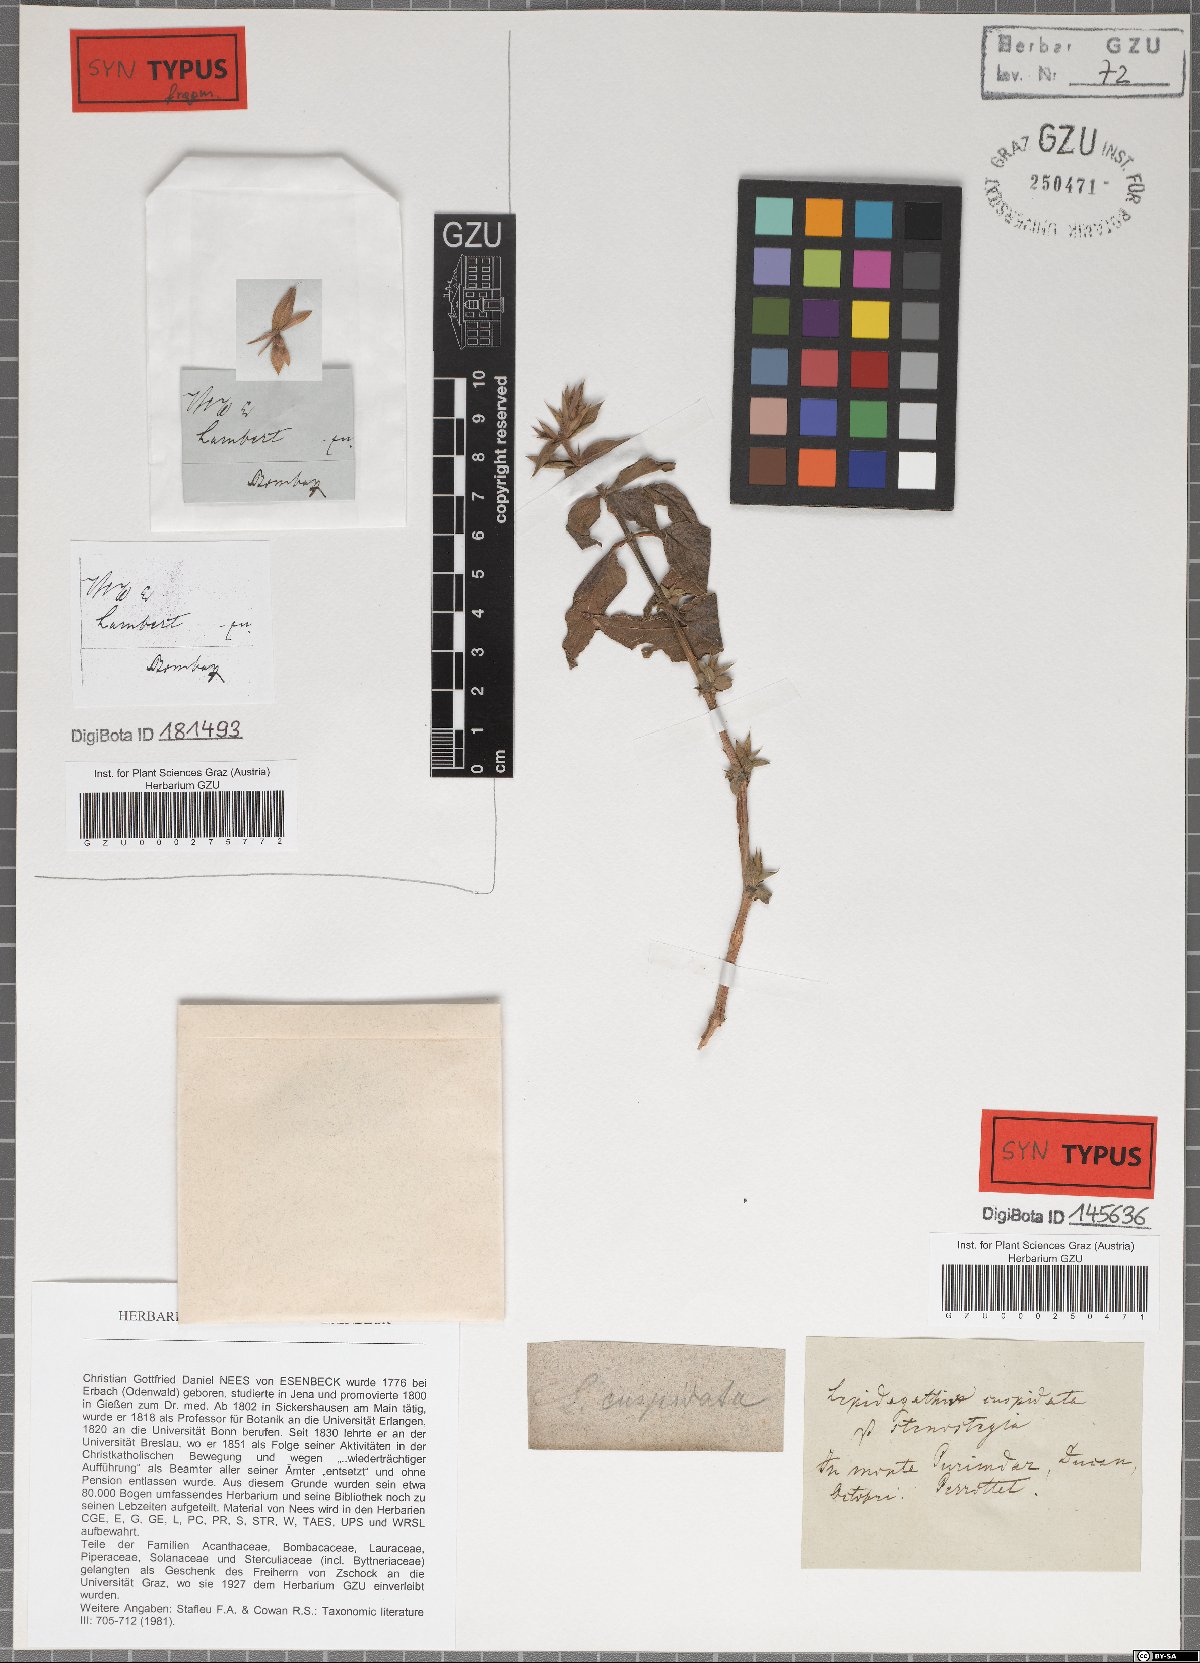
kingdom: Plantae
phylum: Tracheophyta
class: Magnoliopsida
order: Lamiales
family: Acanthaceae
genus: Lepidagathis
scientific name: Lepidagathis cuspidata
